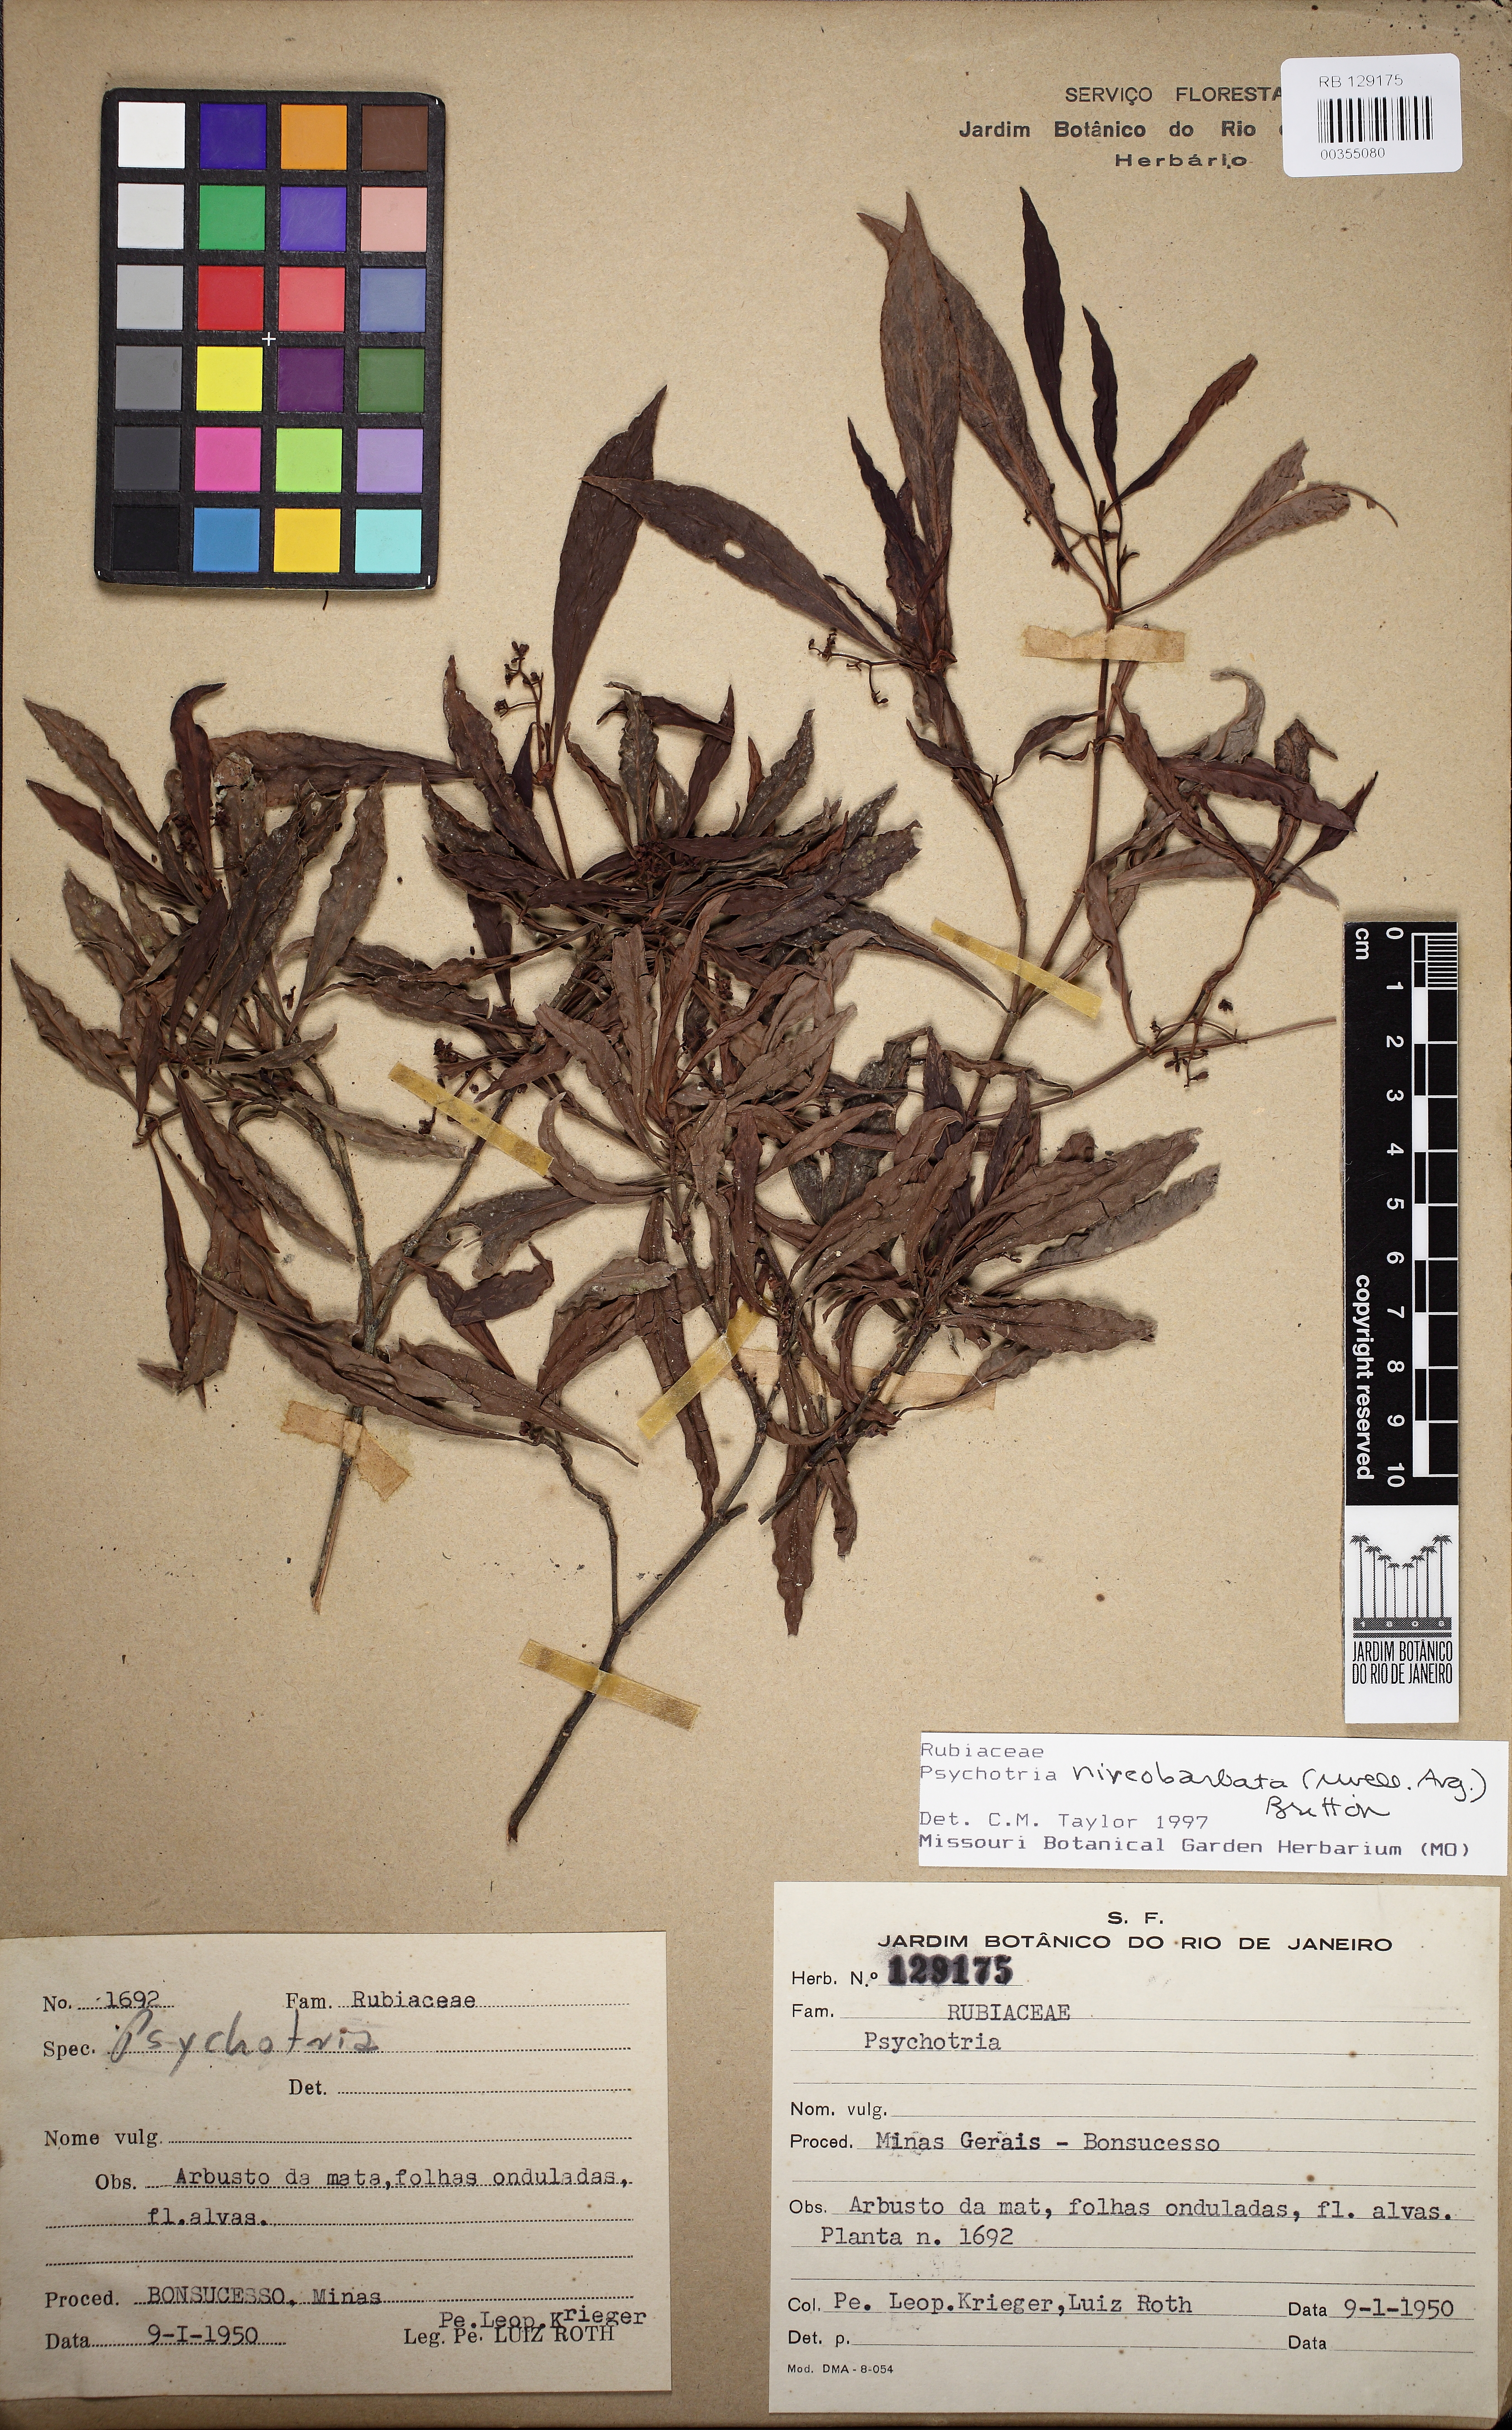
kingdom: Plantae
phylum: Tracheophyta
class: Magnoliopsida
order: Gentianales
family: Rubiaceae
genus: Psychotria
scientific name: Psychotria niveobarbata
